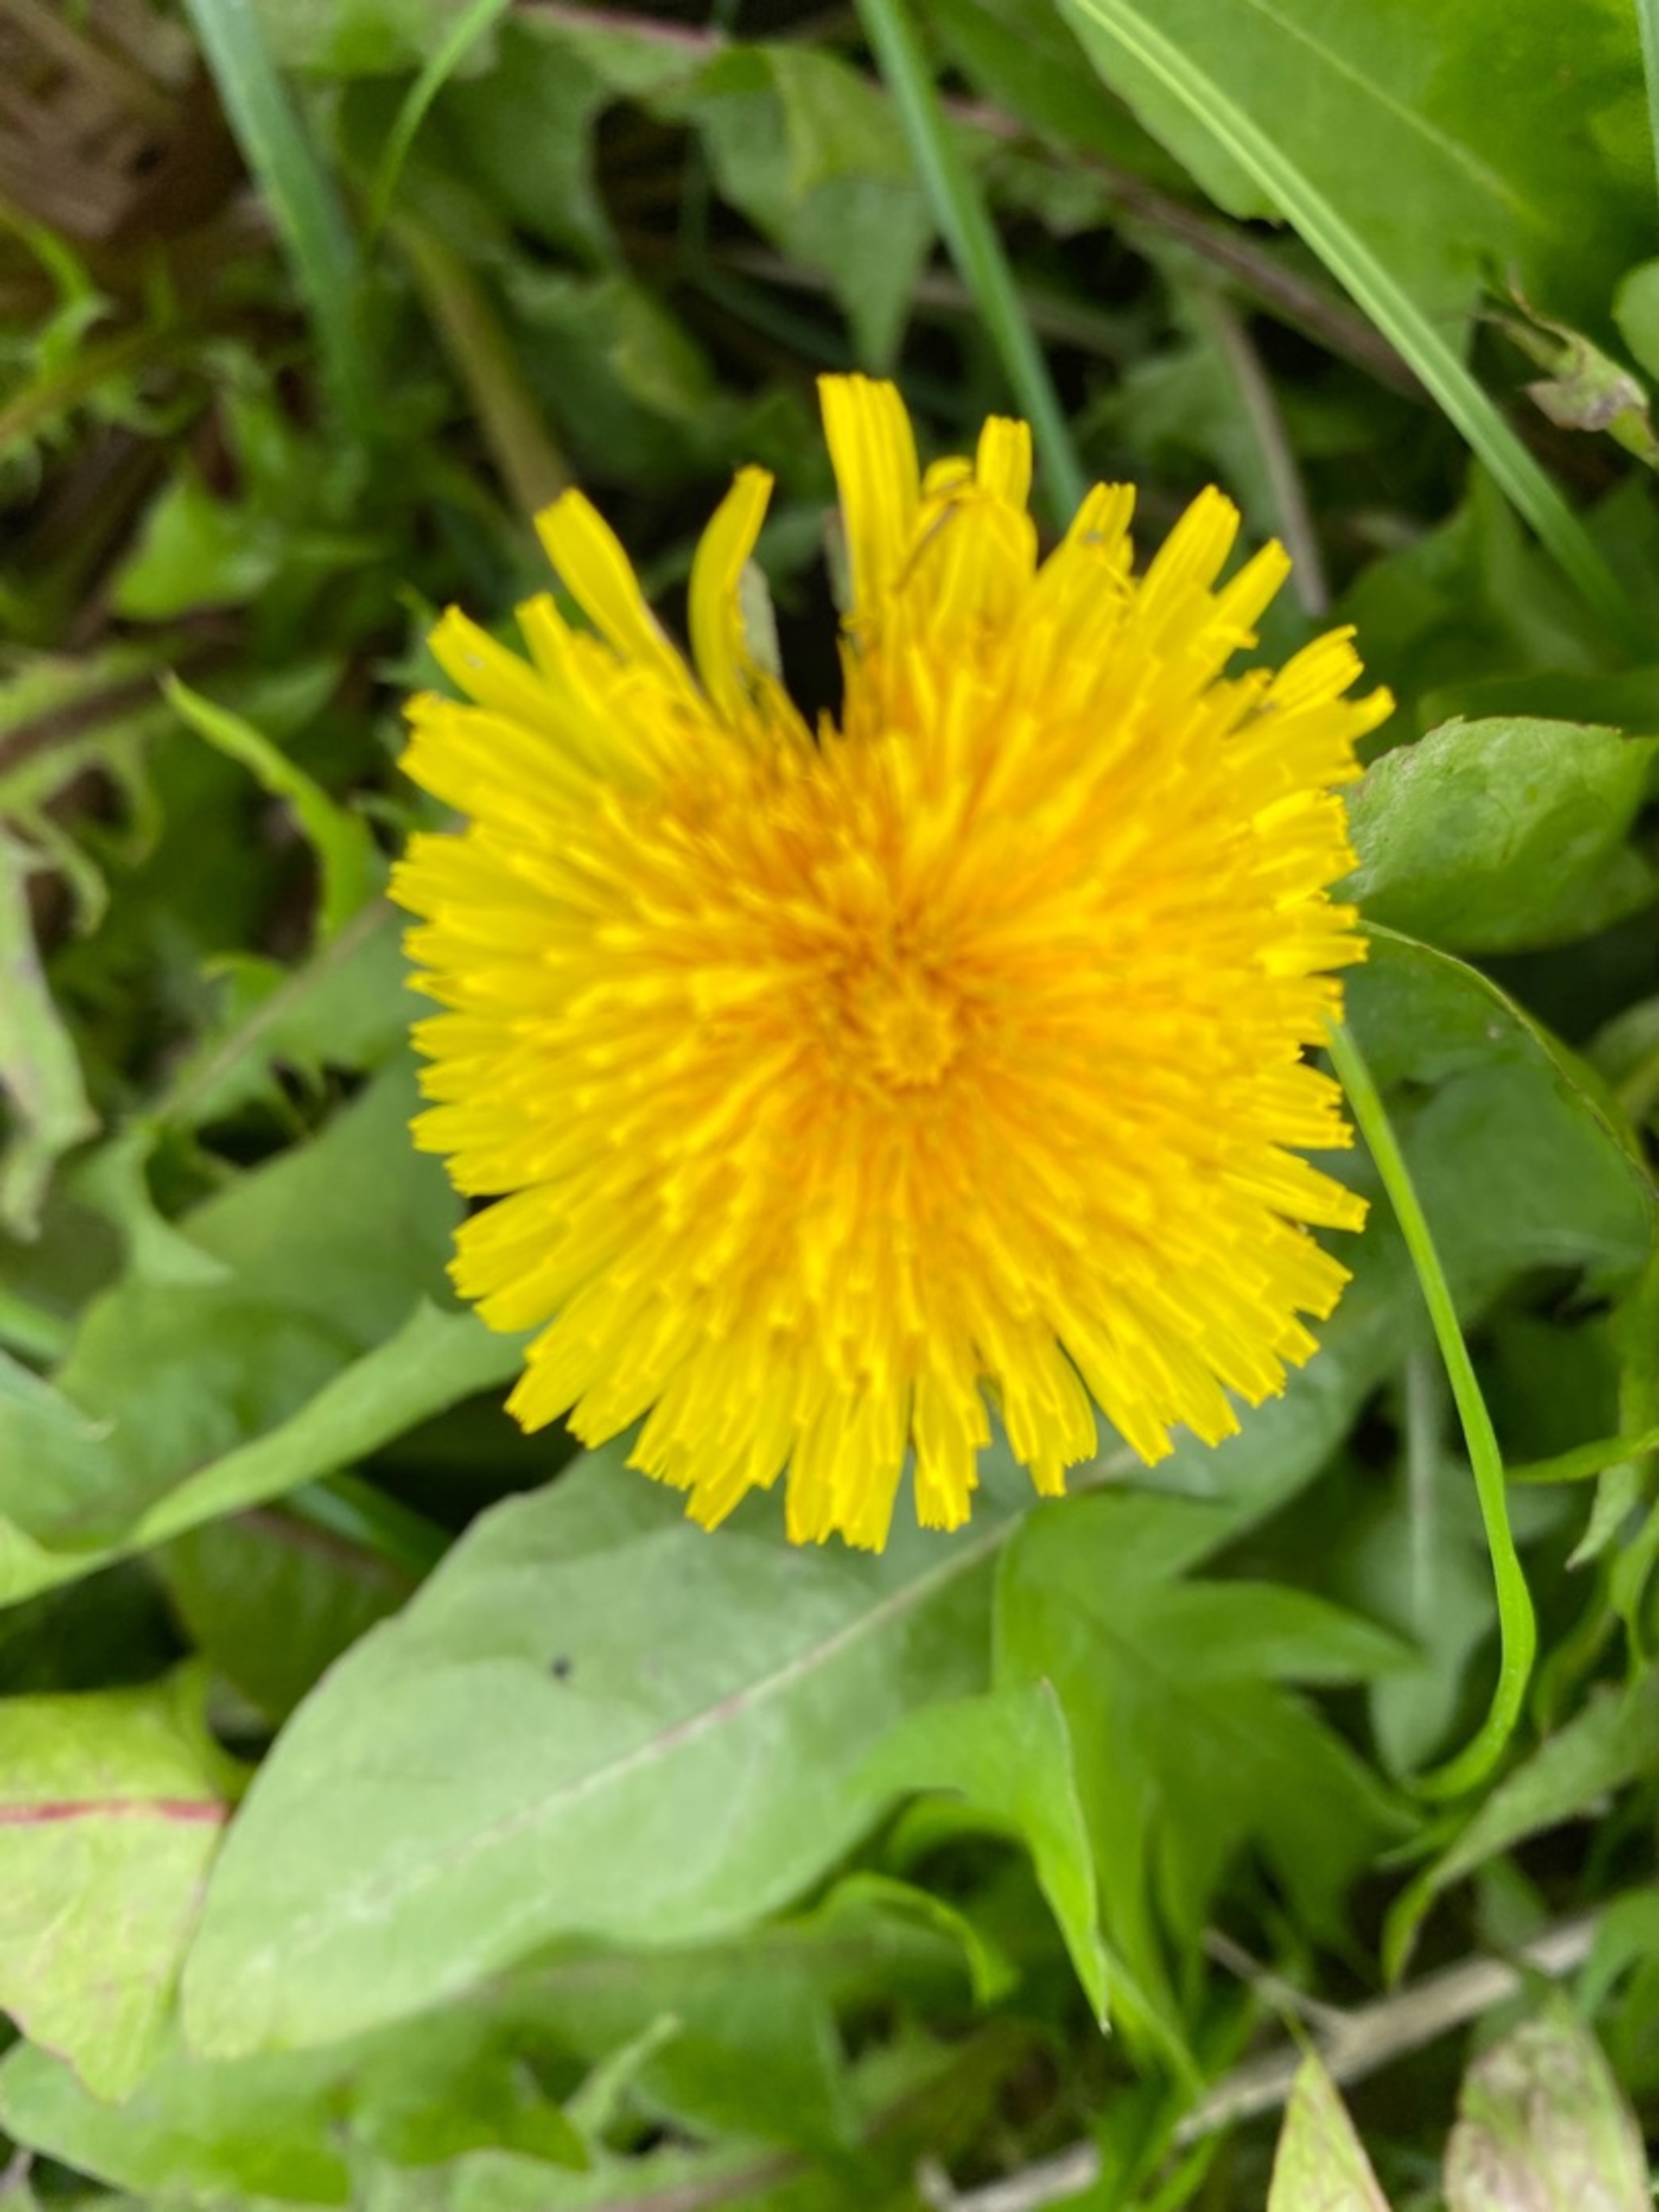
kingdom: Plantae
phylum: Tracheophyta
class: Magnoliopsida
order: Asterales
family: Asteraceae
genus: Taraxacum
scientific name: Taraxacum
